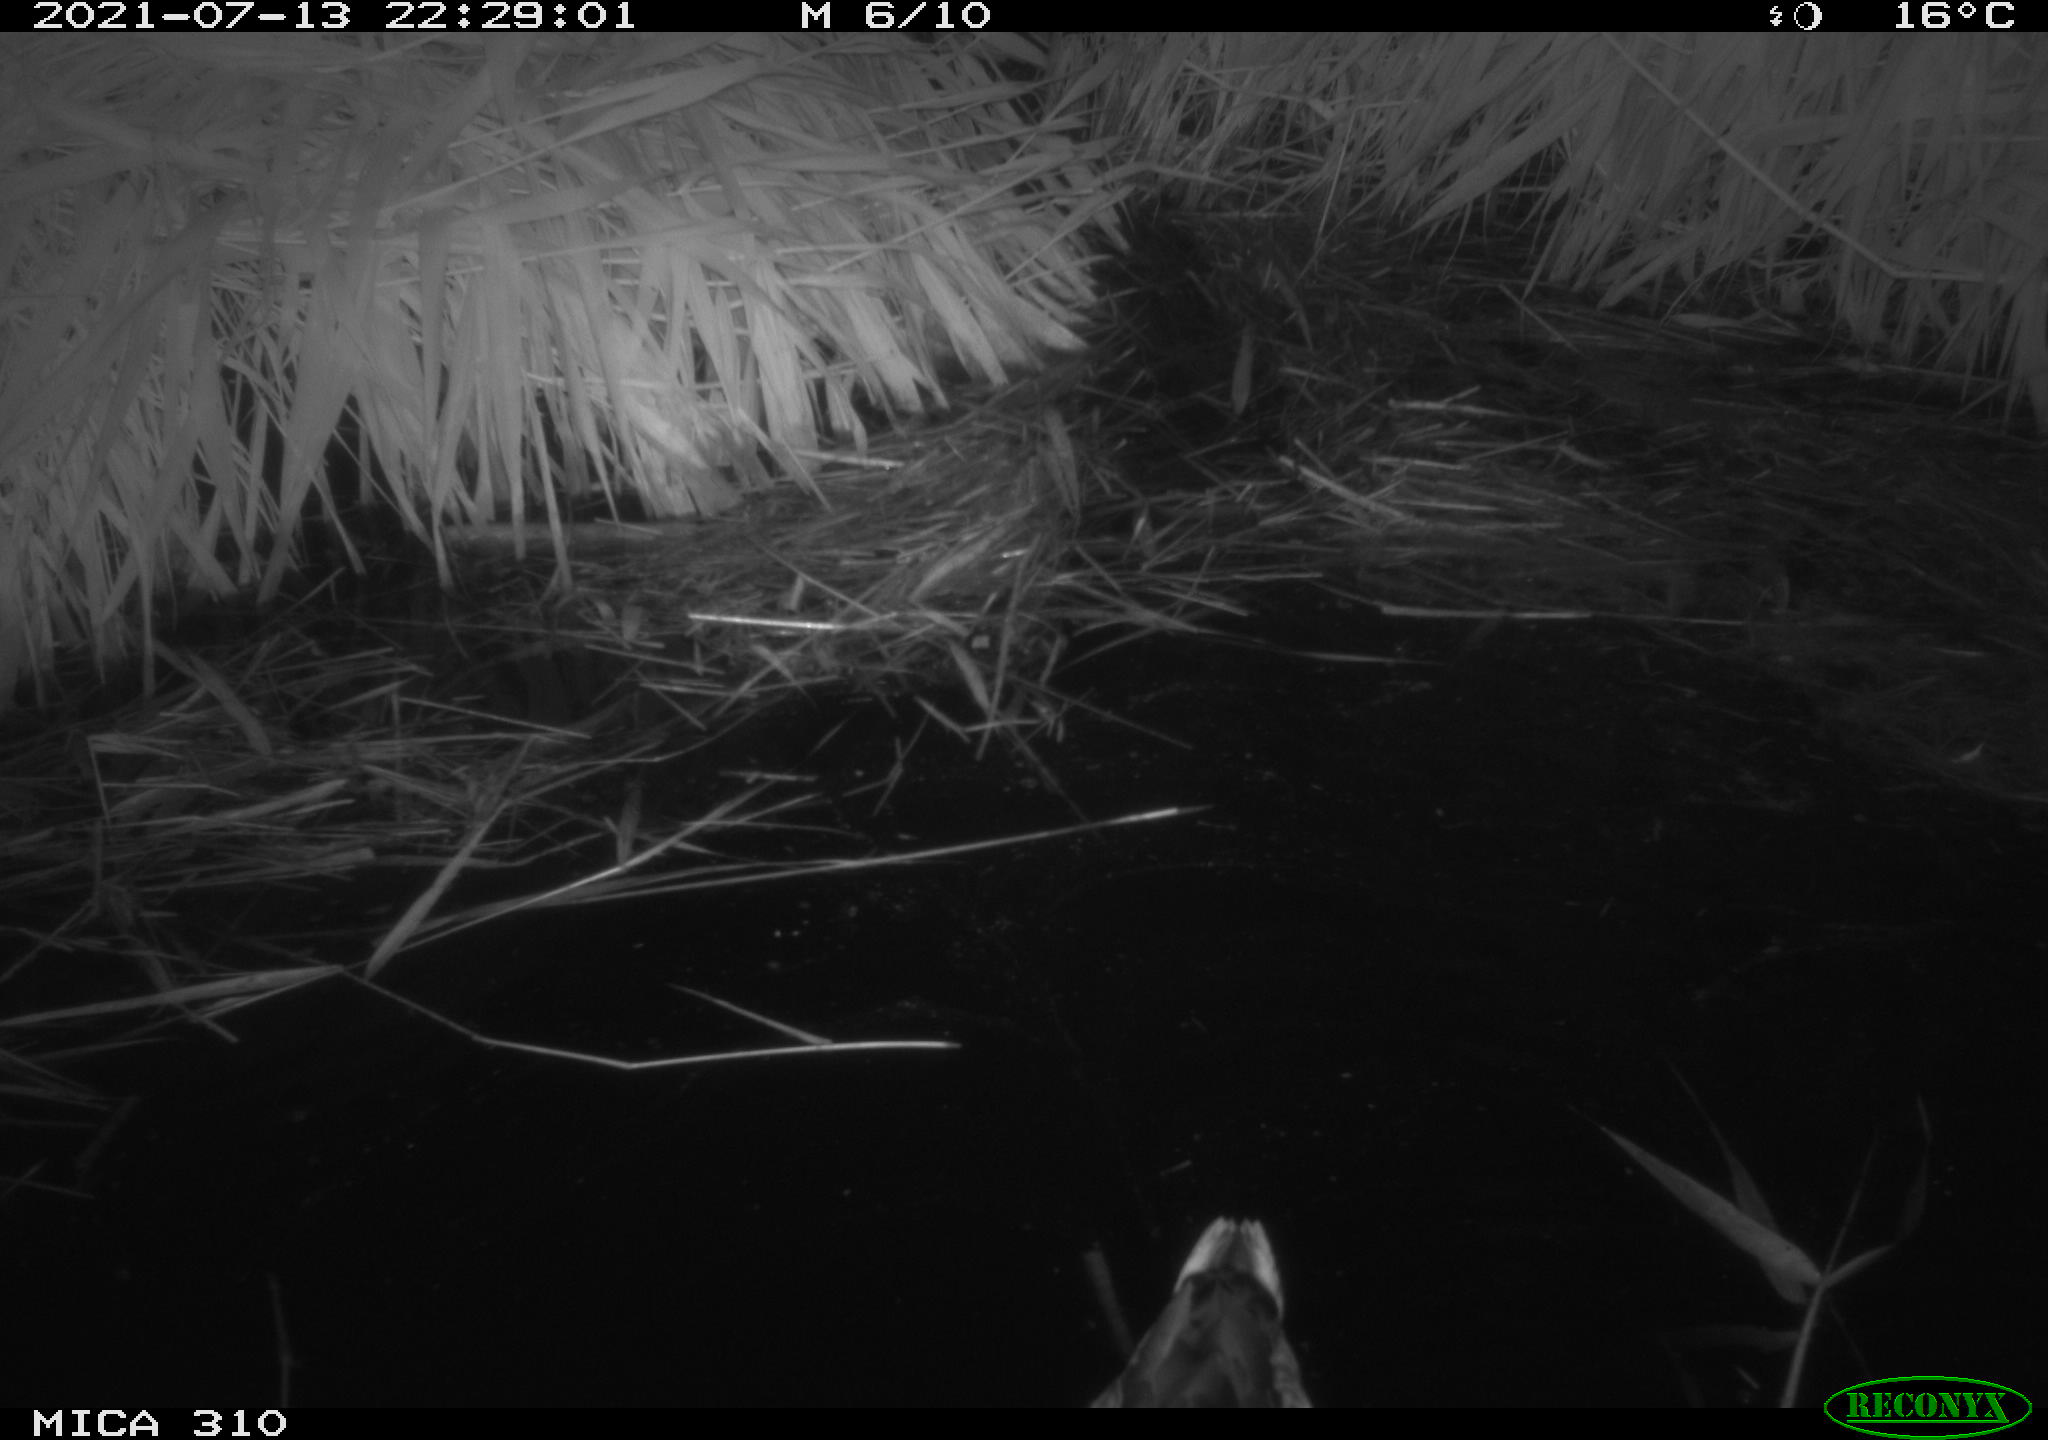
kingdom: Animalia
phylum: Chordata
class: Aves
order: Anseriformes
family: Anatidae
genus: Anas
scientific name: Anas platyrhynchos
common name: Mallard
